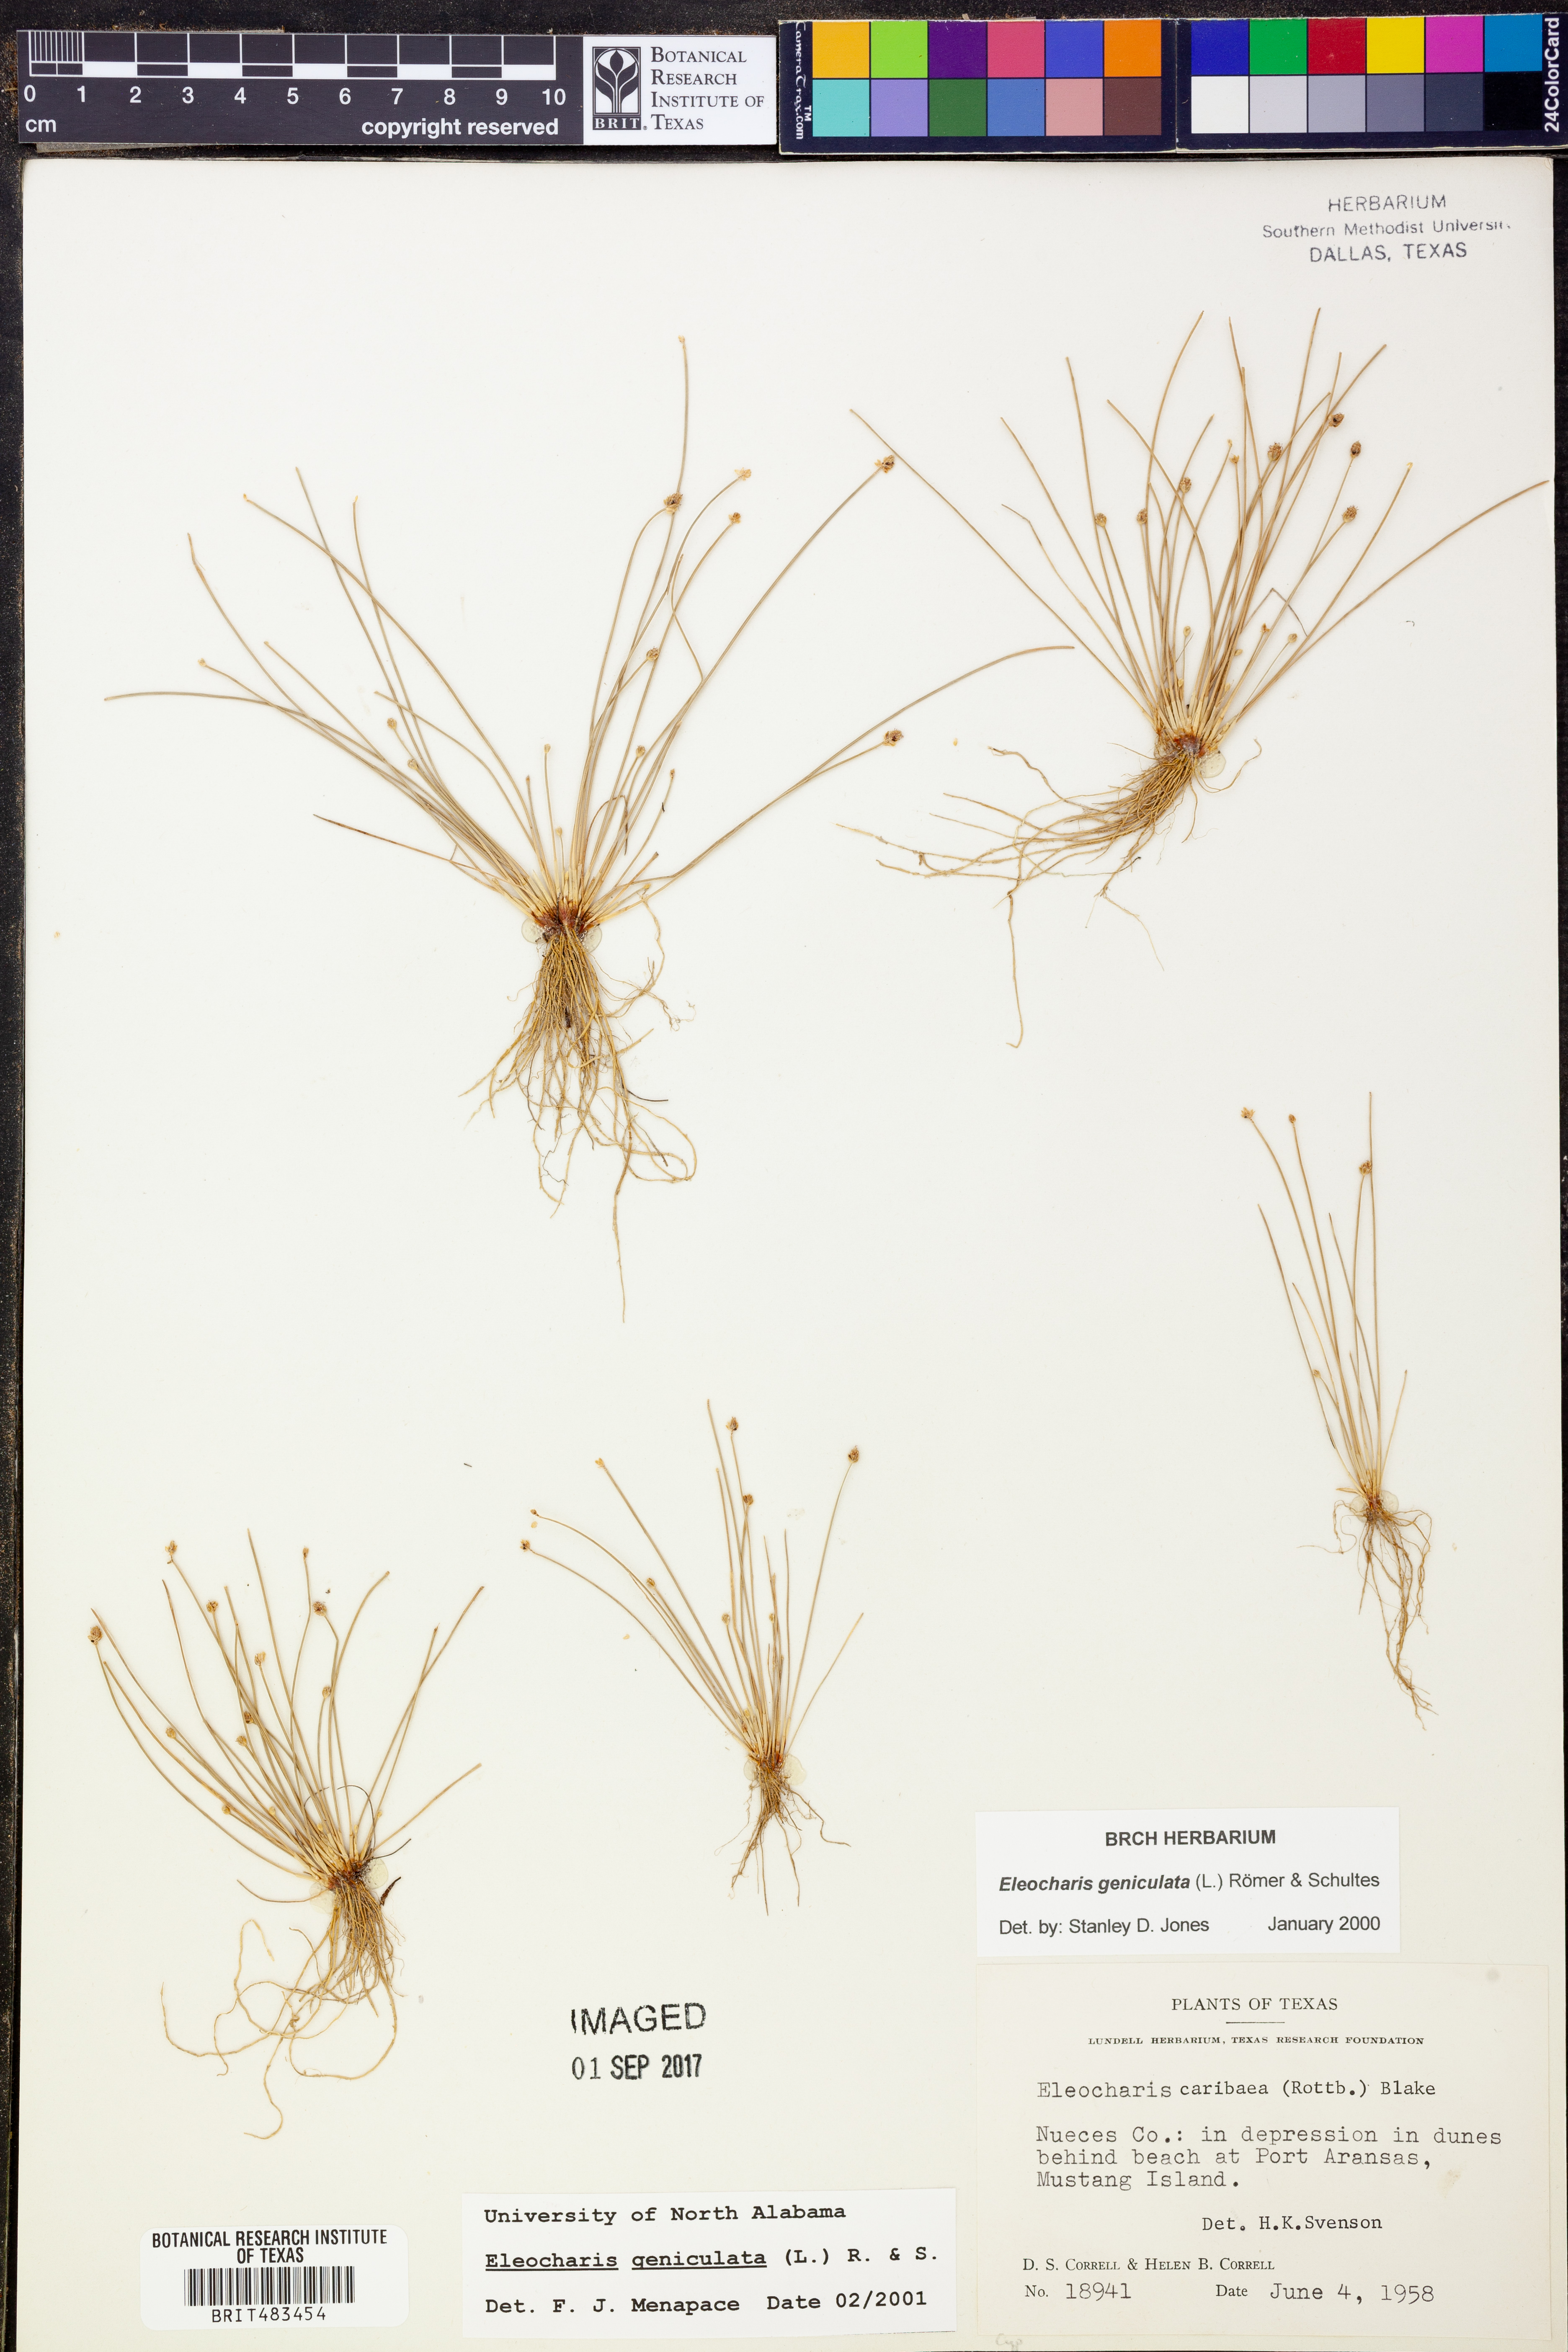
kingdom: Plantae
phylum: Tracheophyta
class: Liliopsida
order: Poales
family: Cyperaceae
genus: Eleocharis
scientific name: Eleocharis geniculata
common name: Canada spikesedge
